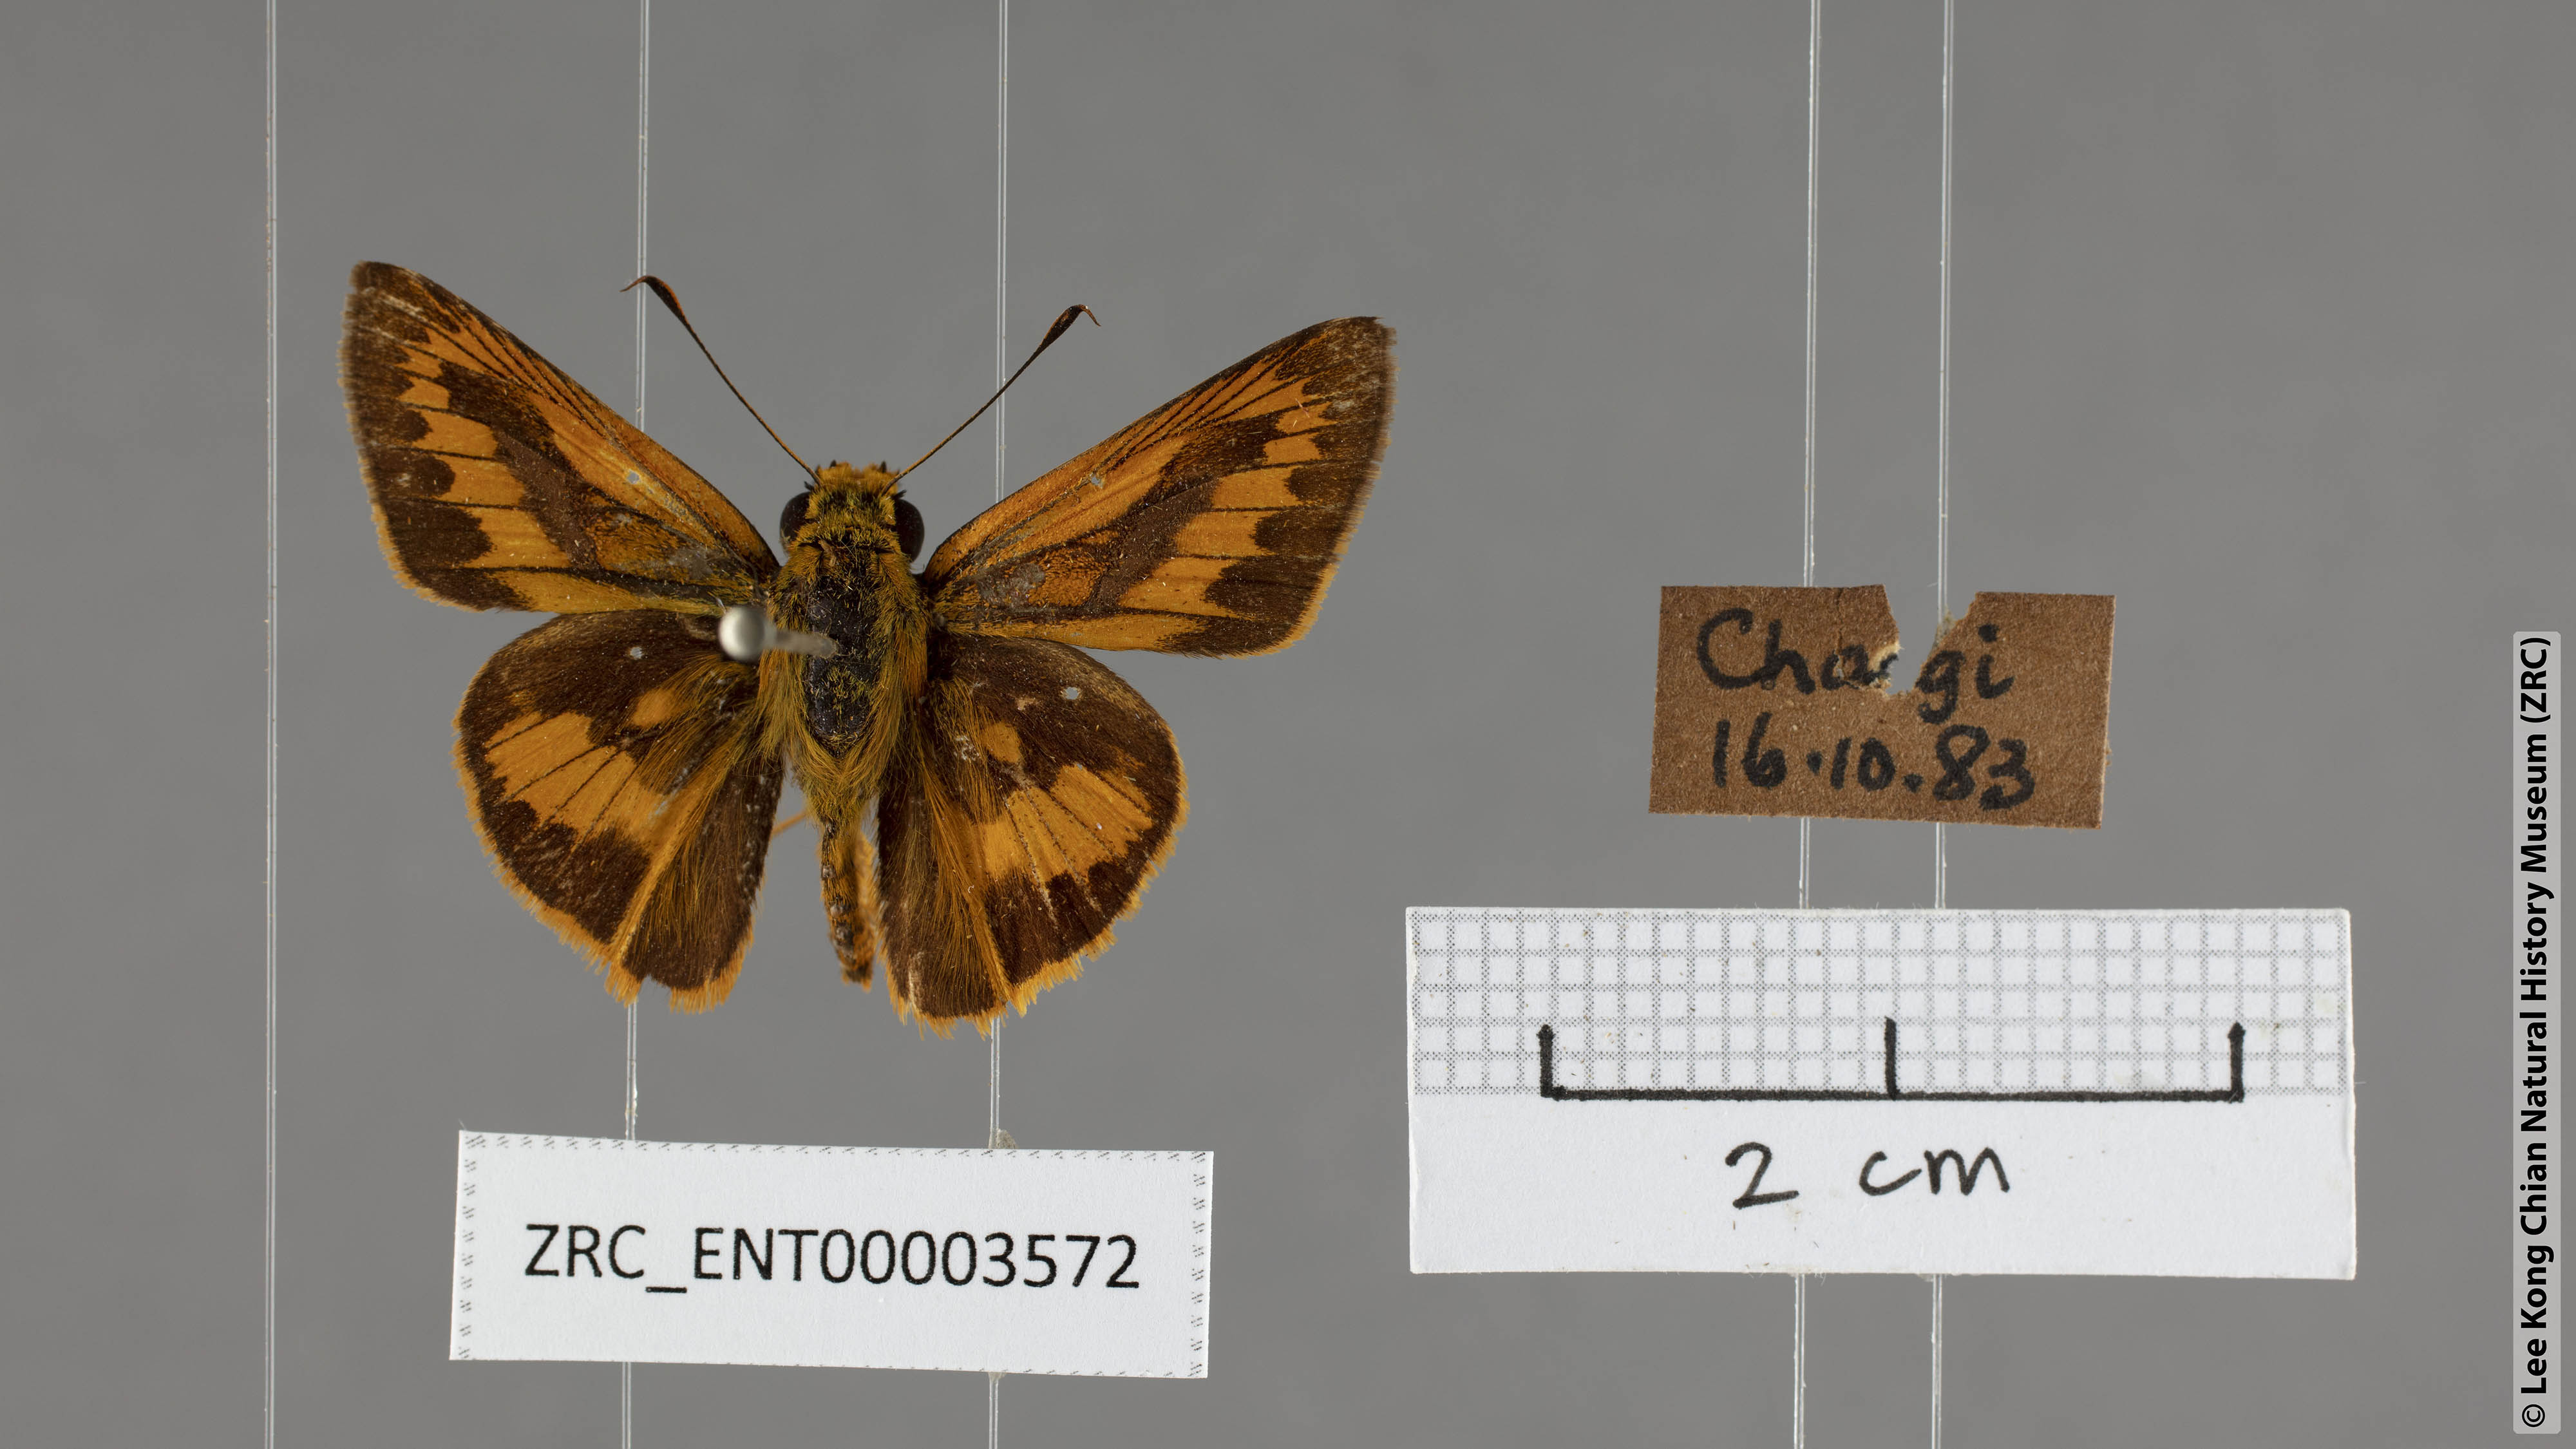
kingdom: Animalia
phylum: Arthropoda
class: Insecta
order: Lepidoptera
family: Hesperiidae
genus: Telicota
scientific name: Telicota augias
